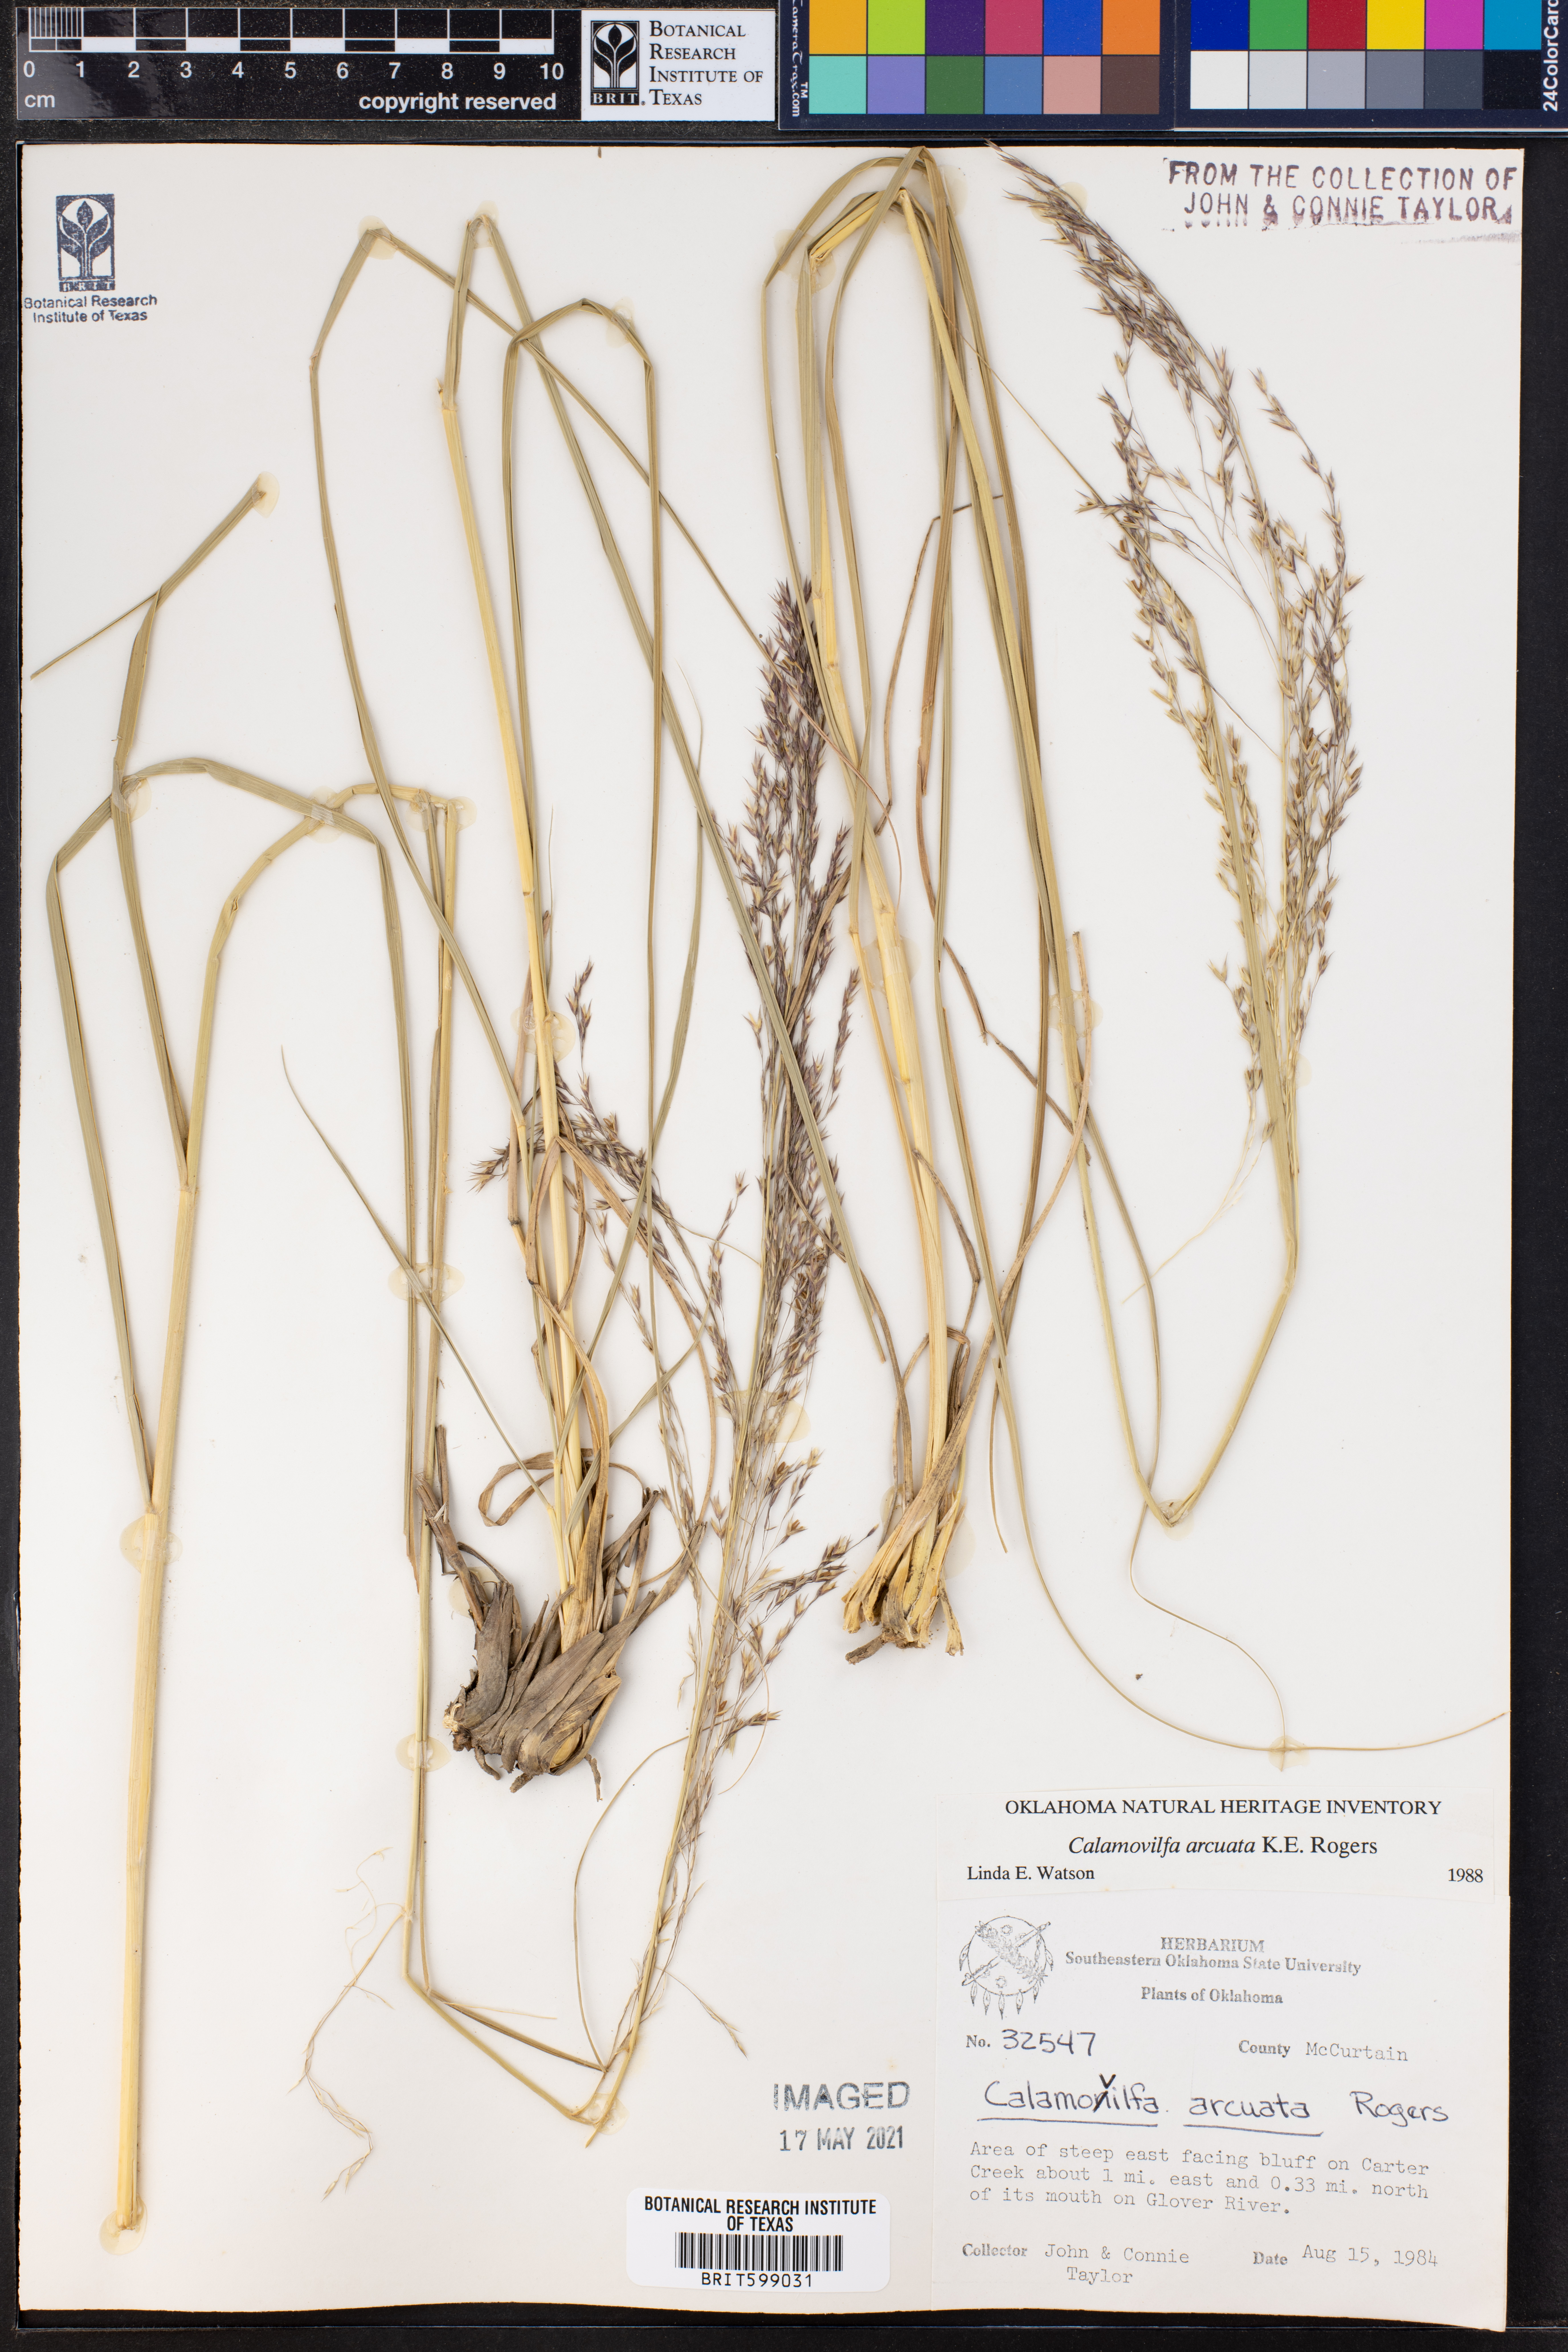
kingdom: Plantae
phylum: Tracheophyta
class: Liliopsida
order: Poales
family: Poaceae
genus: Sporobolus
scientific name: Sporobolus arcuatus
